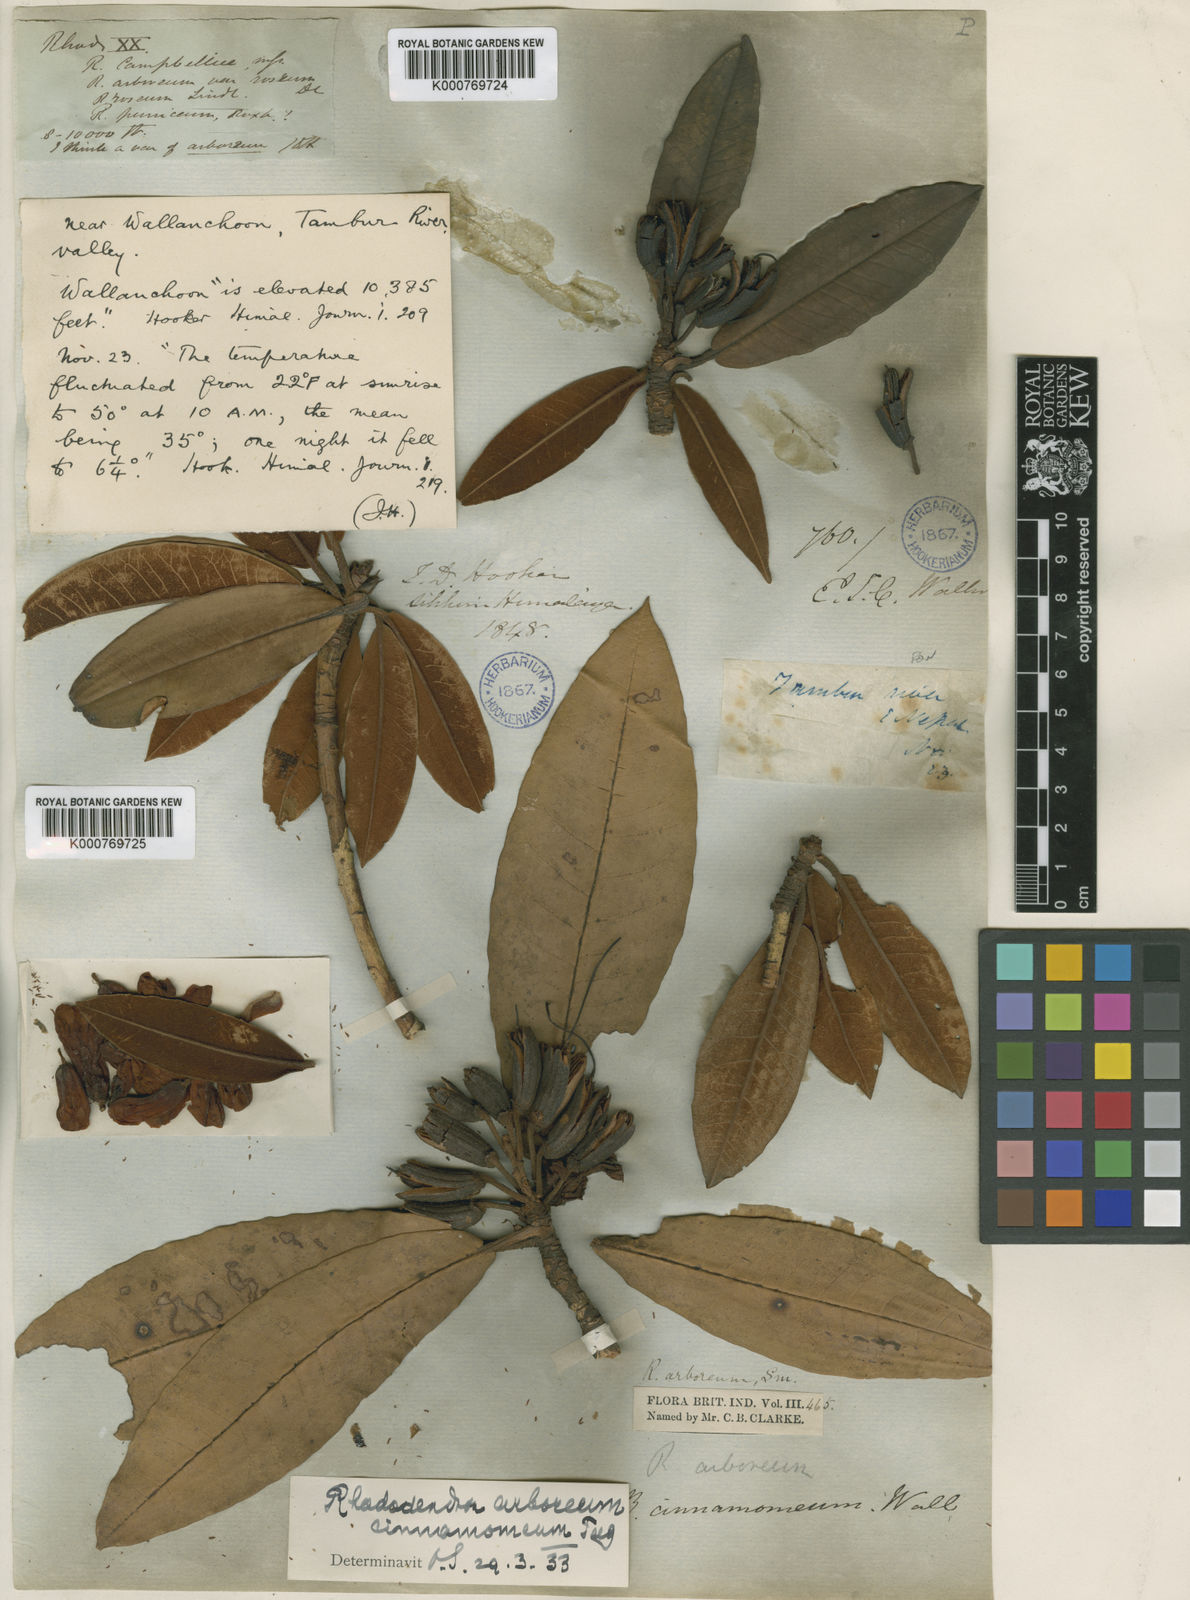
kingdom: Plantae
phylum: Tracheophyta
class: Magnoliopsida
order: Ericales
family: Ericaceae
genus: Rhododendron
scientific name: Rhododendron arboreum
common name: Tree rhododendron
